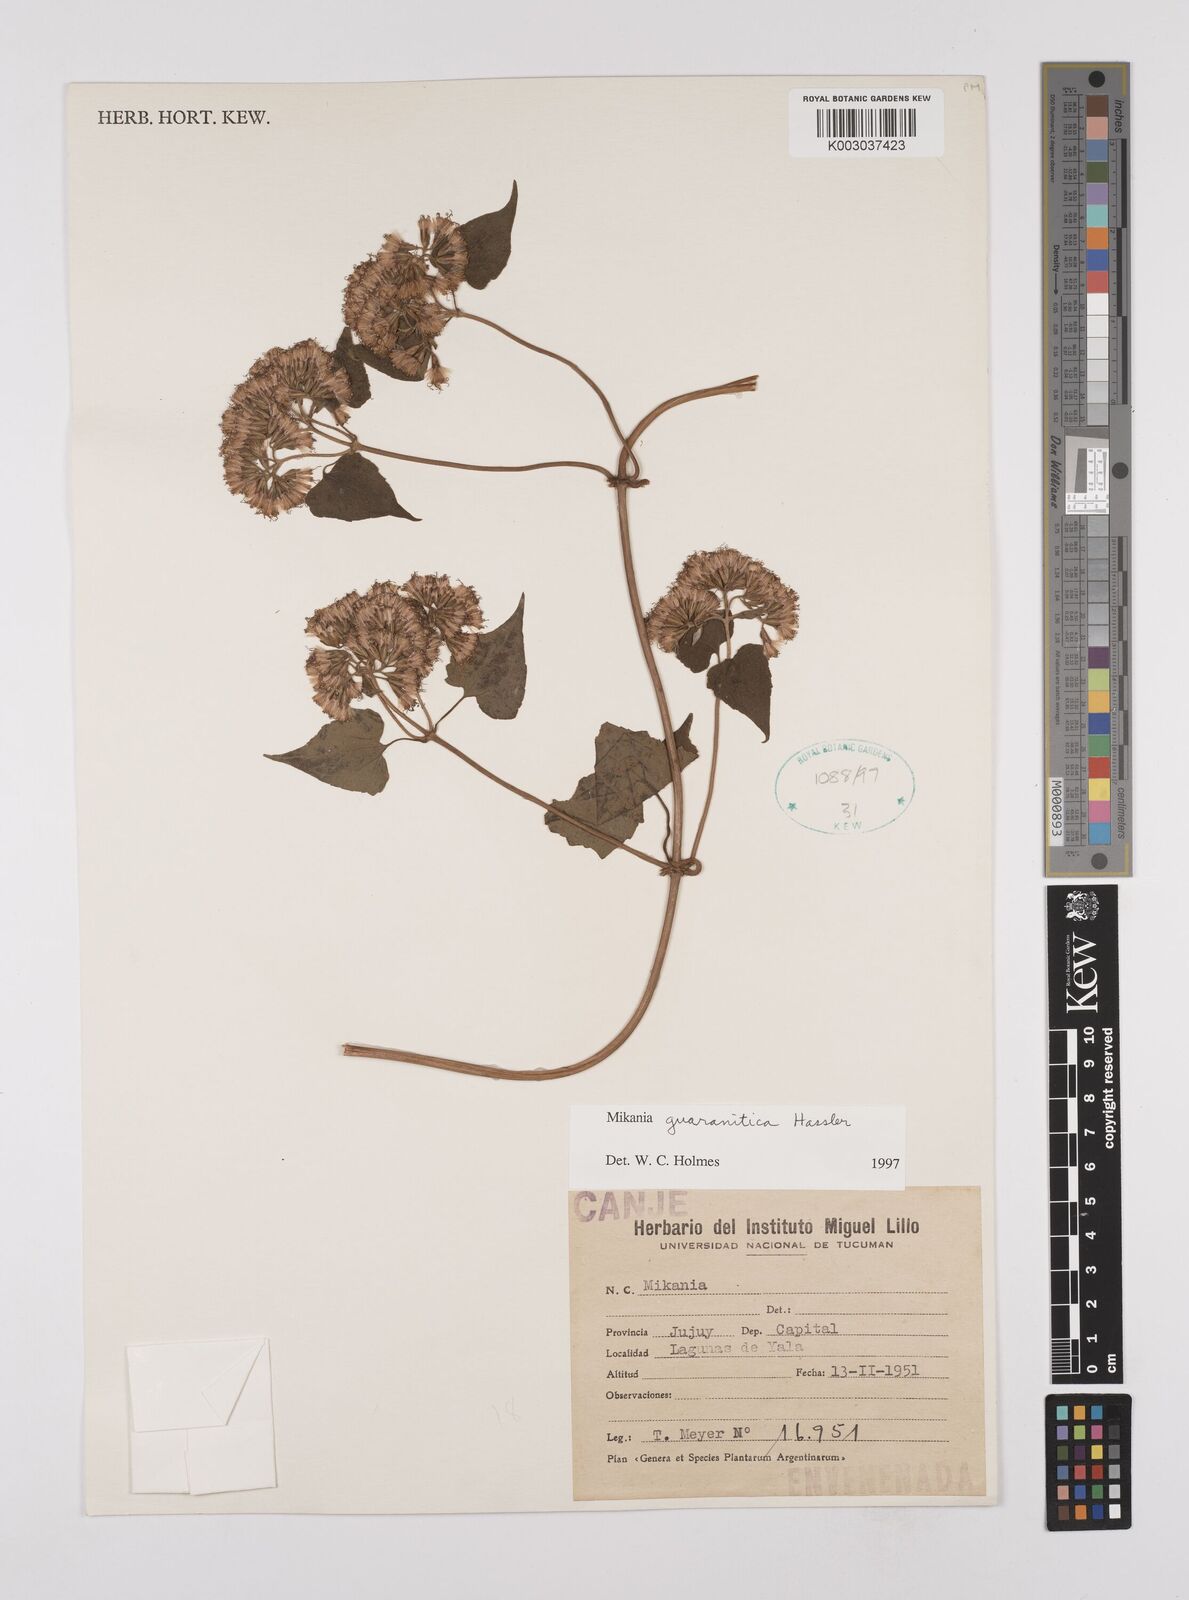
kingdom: Plantae
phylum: Tracheophyta
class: Magnoliopsida
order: Asterales
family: Asteraceae
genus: Mikania
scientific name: Mikania guaranitica
